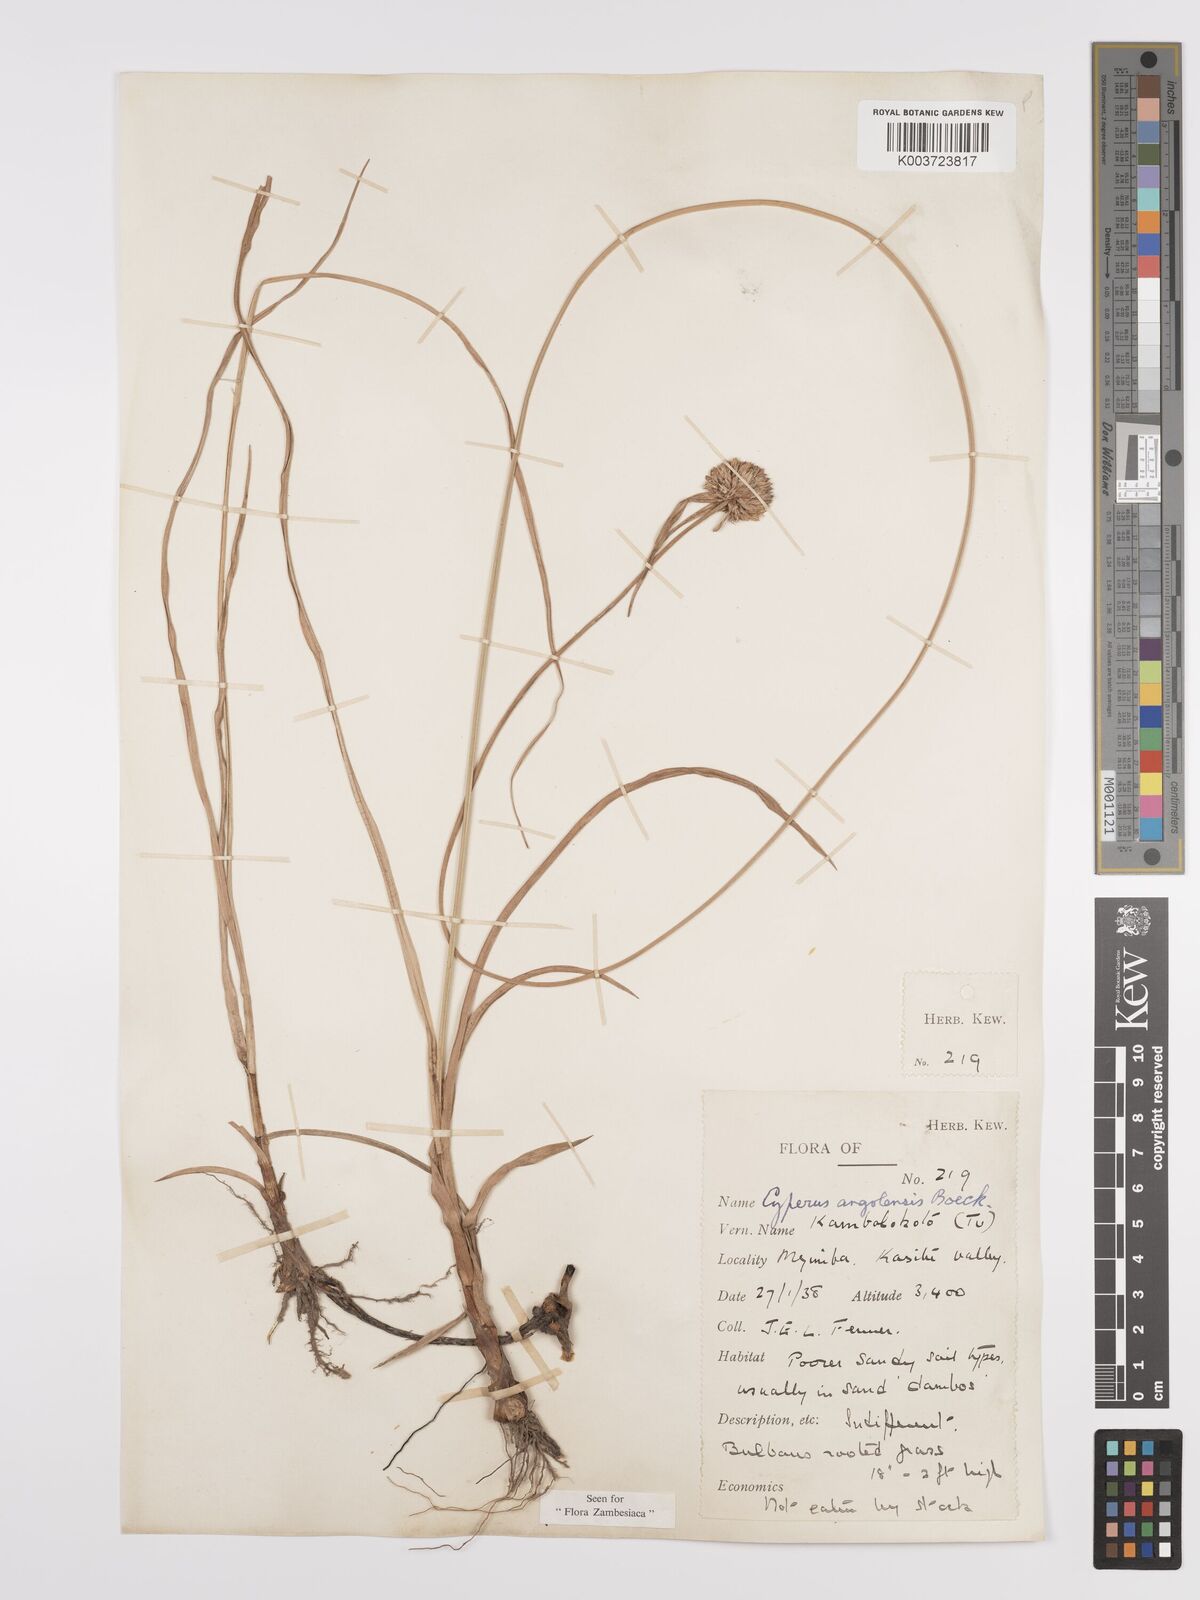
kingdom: Plantae
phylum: Tracheophyta
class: Liliopsida
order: Poales
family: Cyperaceae
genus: Cyperus
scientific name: Cyperus angolensis
